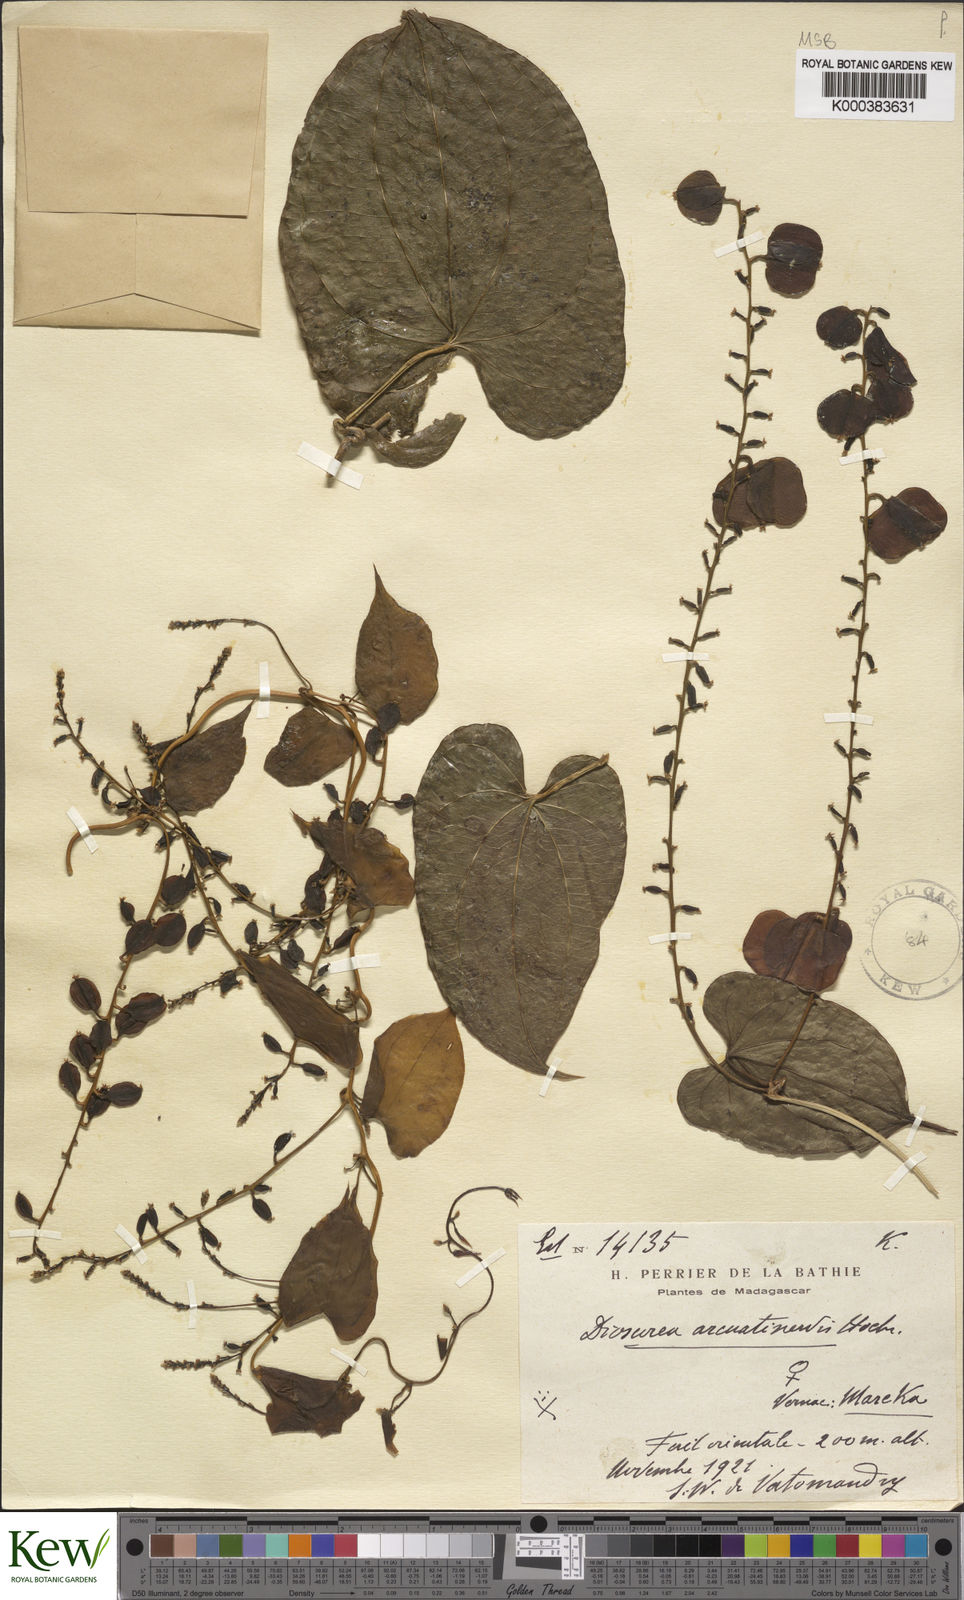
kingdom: Plantae
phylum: Tracheophyta
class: Liliopsida
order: Dioscoreales
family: Dioscoreaceae
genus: Dioscorea
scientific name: Dioscorea arcuatinervis
